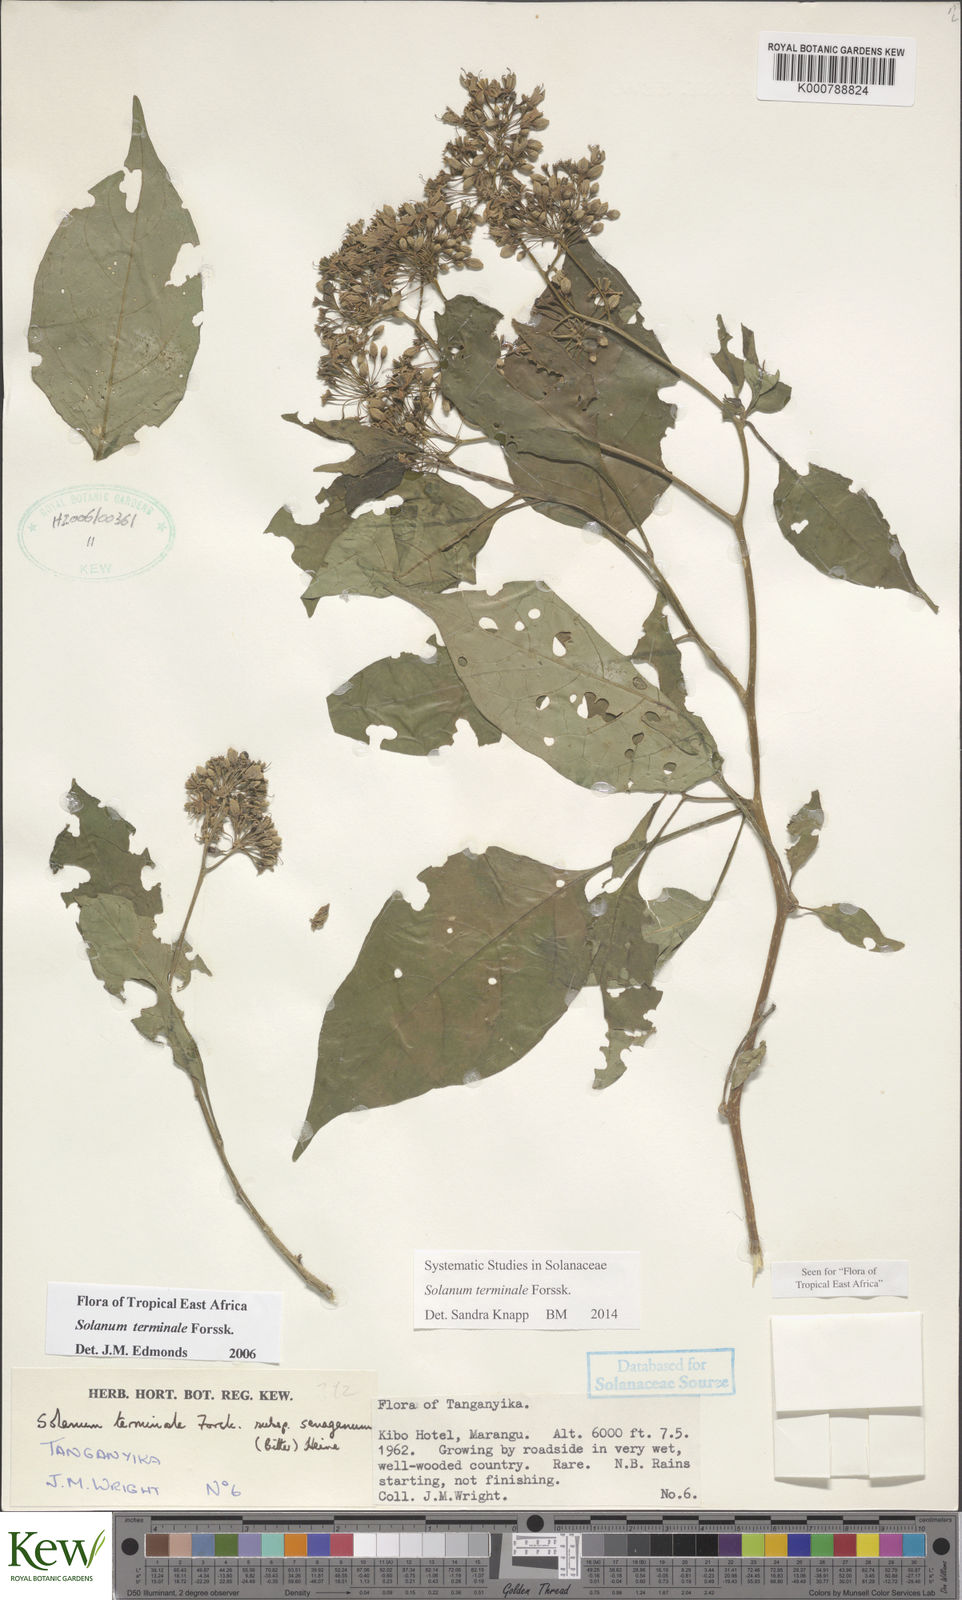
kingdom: Plantae
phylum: Tracheophyta
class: Magnoliopsida
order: Solanales
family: Solanaceae
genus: Solanum
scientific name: Solanum terminale
